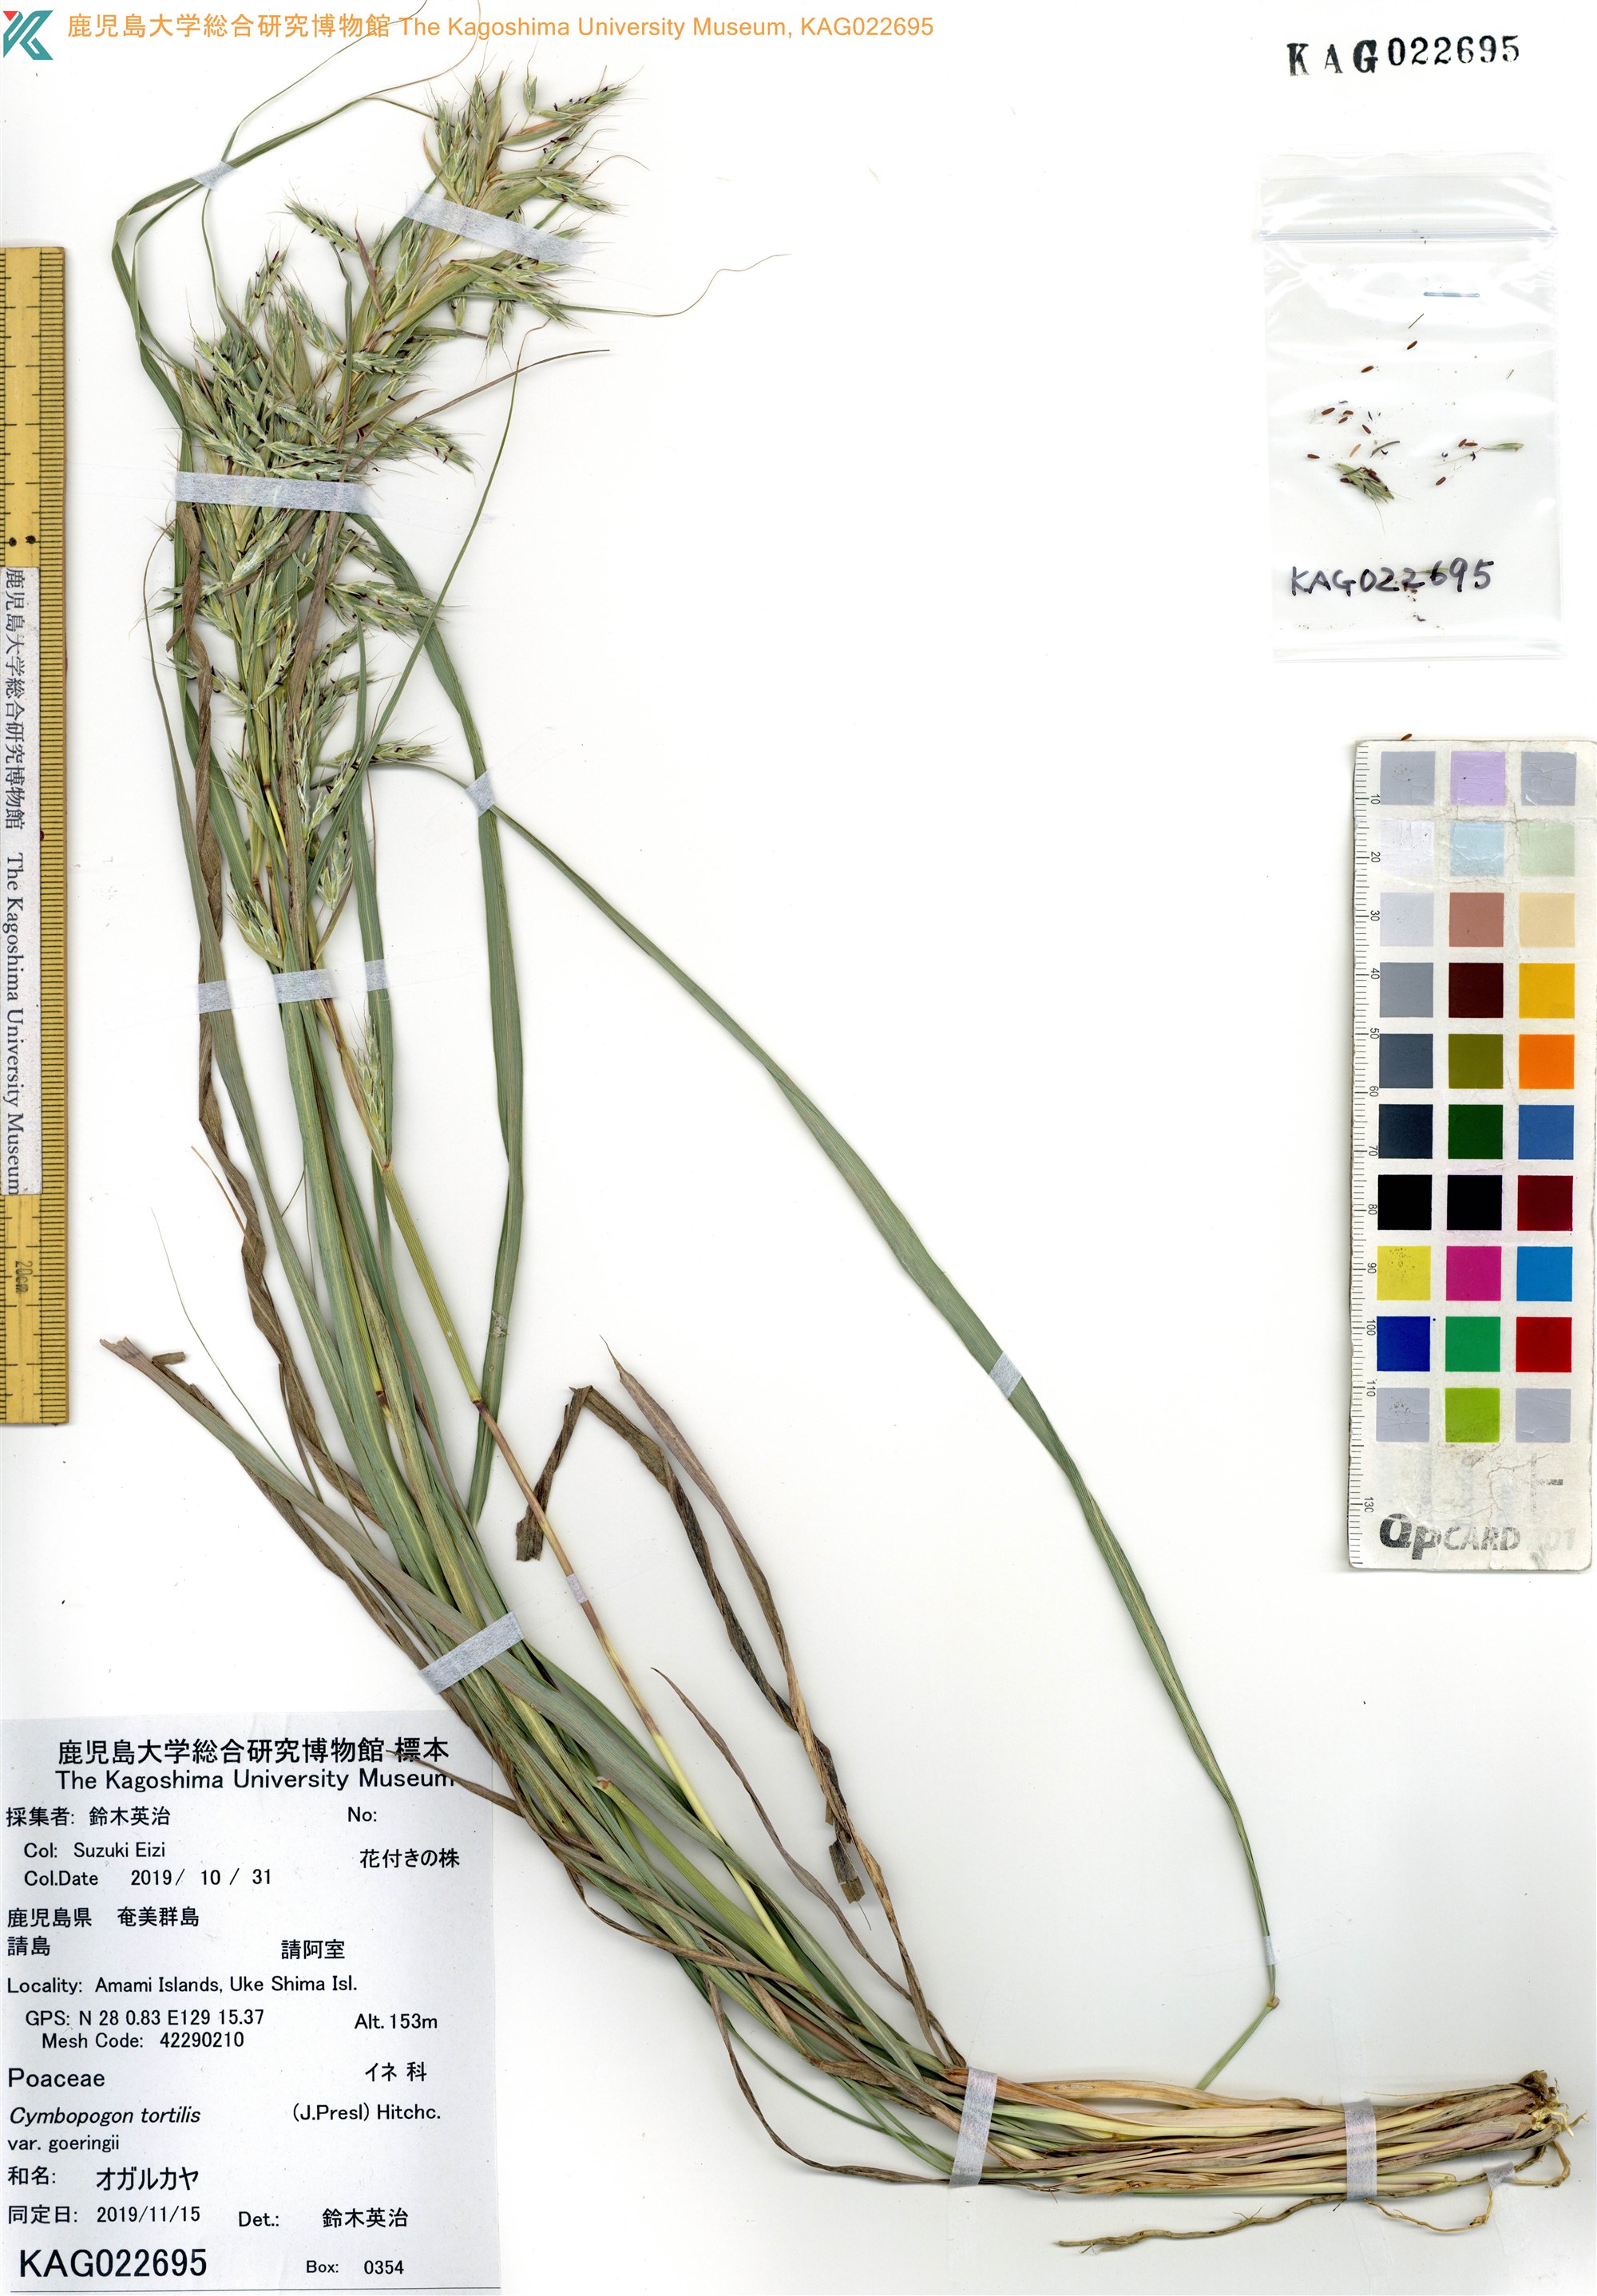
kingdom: Plantae
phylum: Tracheophyta
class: Liliopsida
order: Poales
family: Poaceae
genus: Cymbopogon
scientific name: Cymbopogon goeringii
